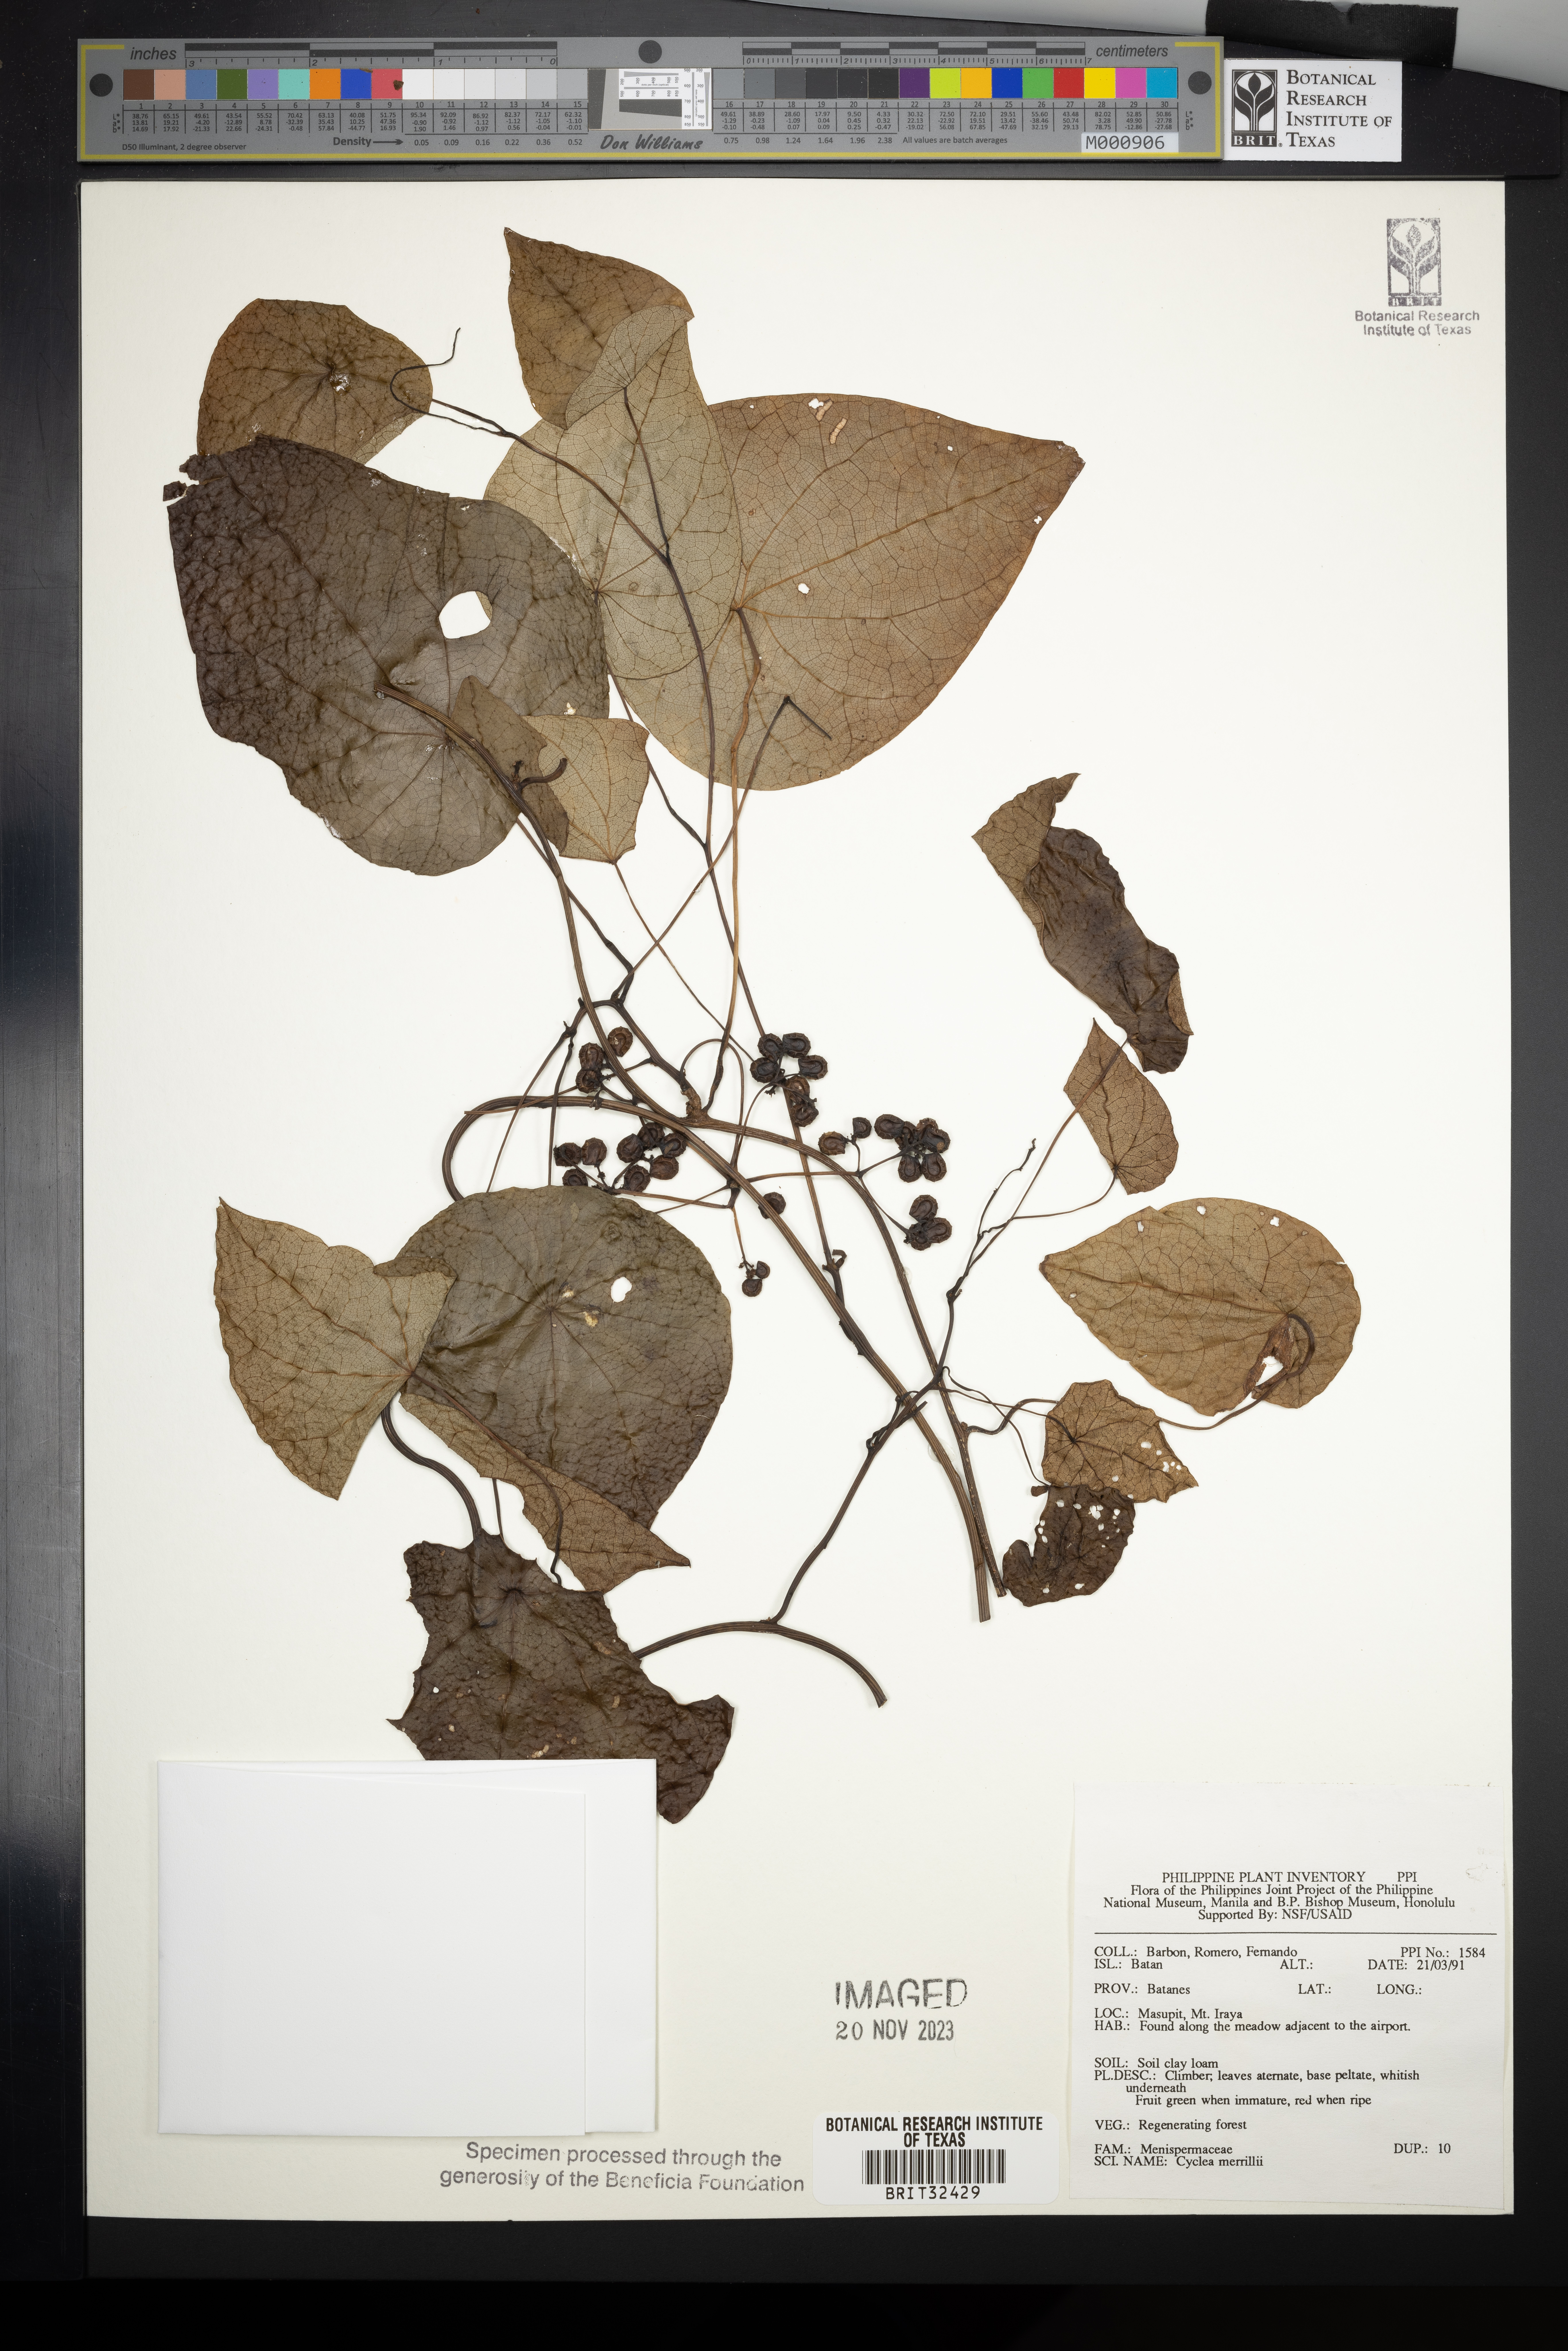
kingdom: Plantae
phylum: Tracheophyta
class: Magnoliopsida
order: Ranunculales
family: Menispermaceae
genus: Cyclea
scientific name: Cyclea merrillii
